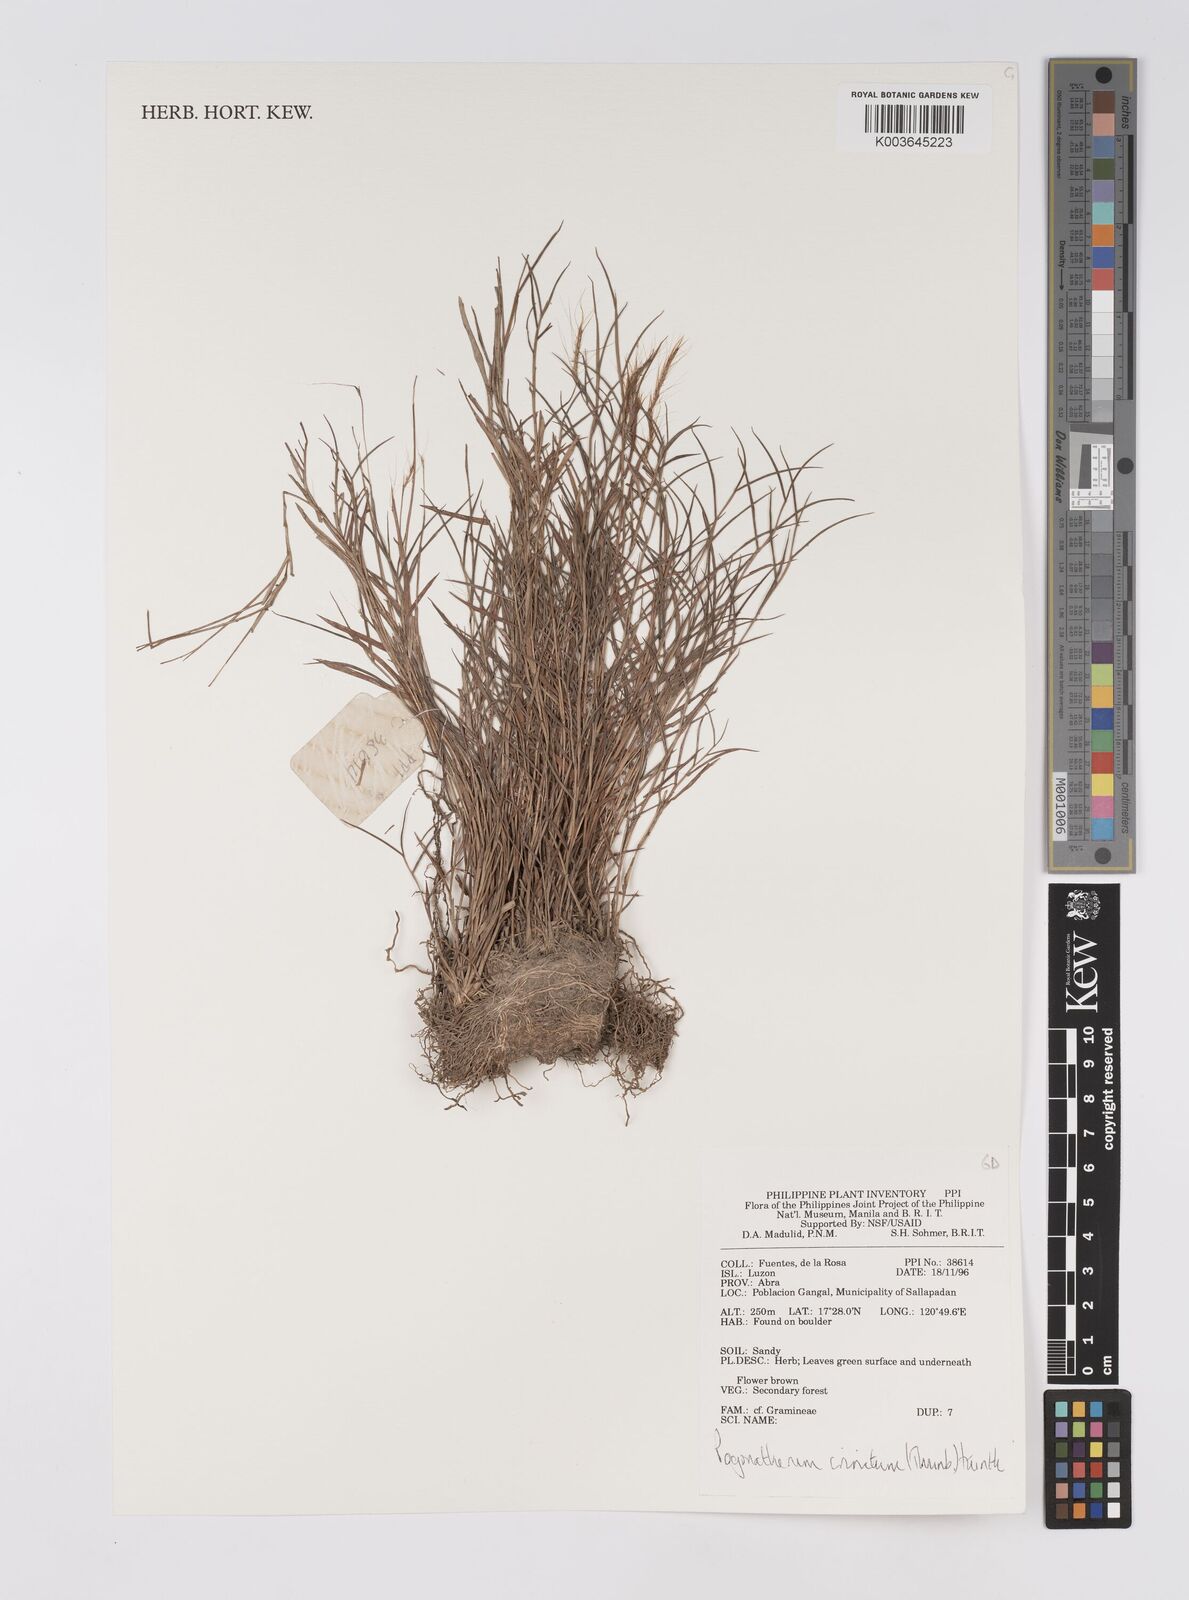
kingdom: Plantae
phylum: Tracheophyta
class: Liliopsida
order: Poales
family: Poaceae
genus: Pogonatherum
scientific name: Pogonatherum crinitum
